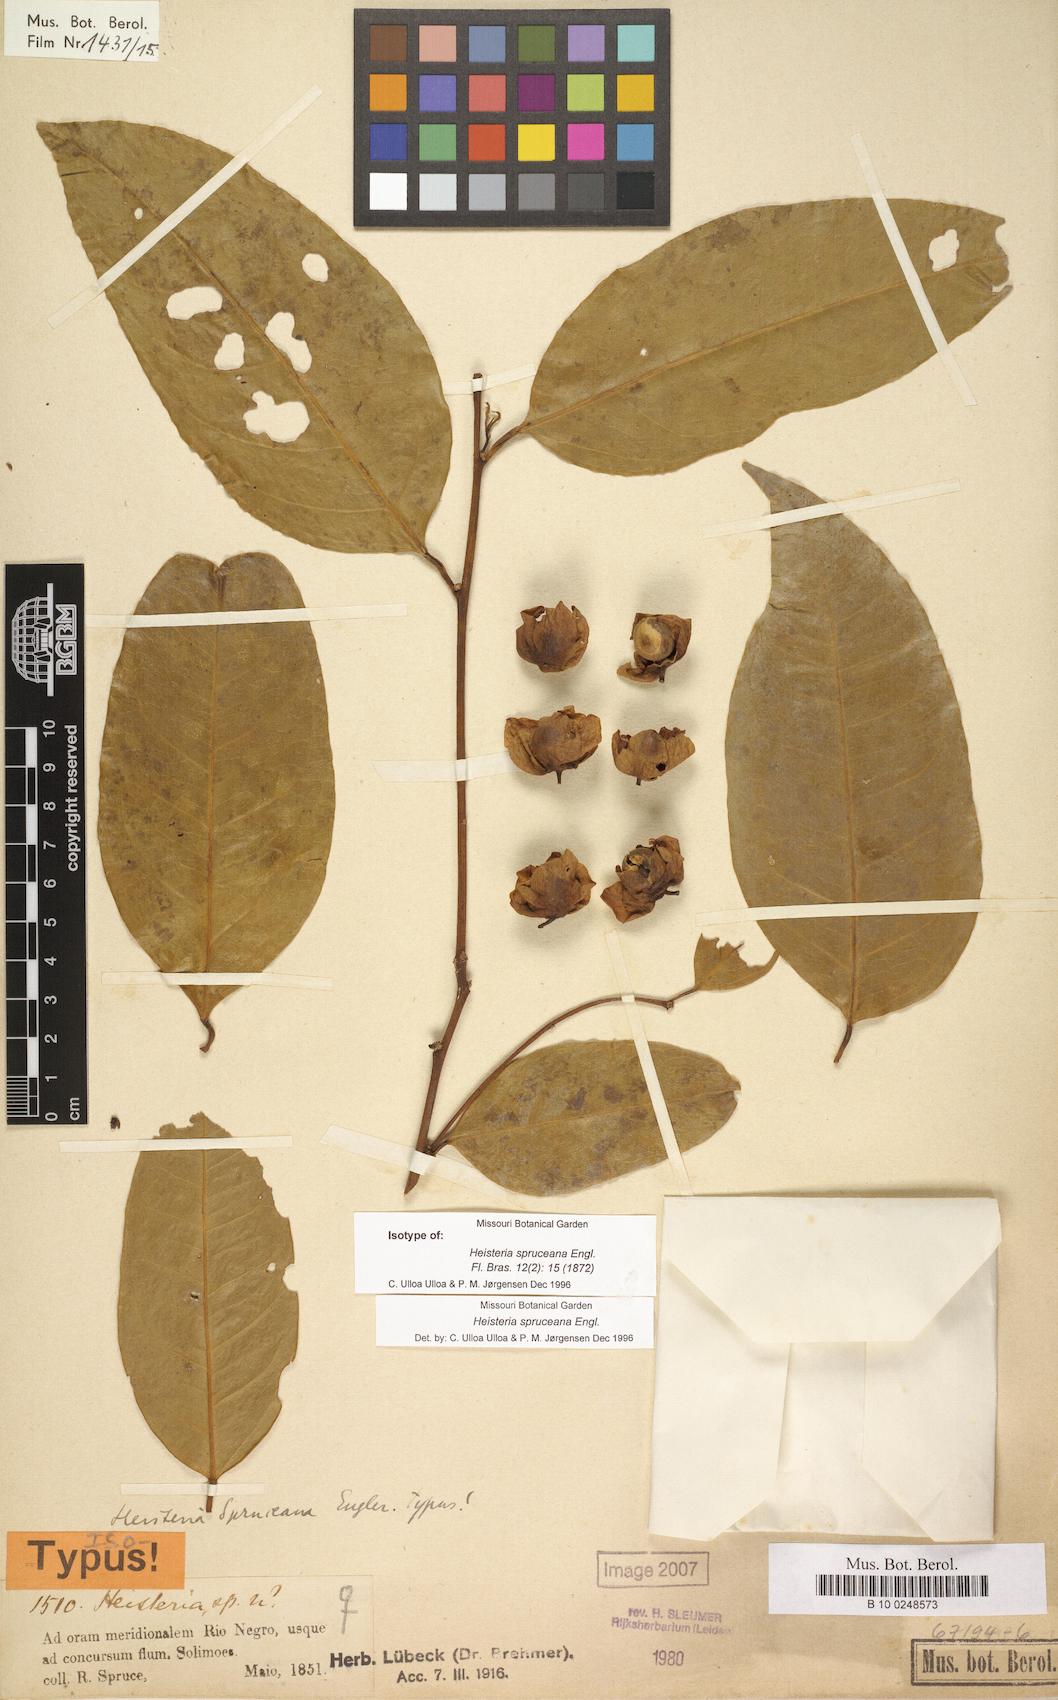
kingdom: Plantae
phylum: Tracheophyta
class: Magnoliopsida
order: Santalales
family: Erythropalaceae
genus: Heisteria
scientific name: Heisteria spruceana
